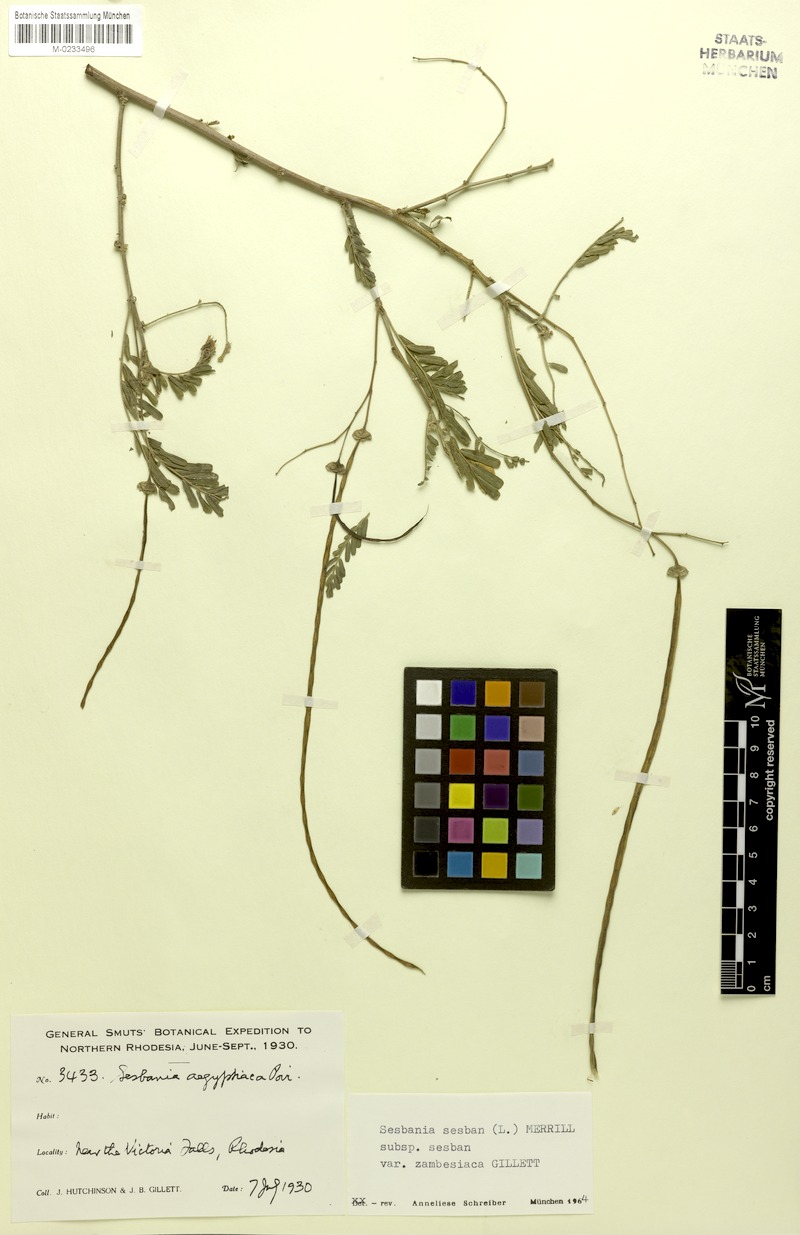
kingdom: Plantae
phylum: Tracheophyta
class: Magnoliopsida
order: Fabales
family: Fabaceae
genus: Sesbania
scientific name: Sesbania sesban
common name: Egyptian sesban
